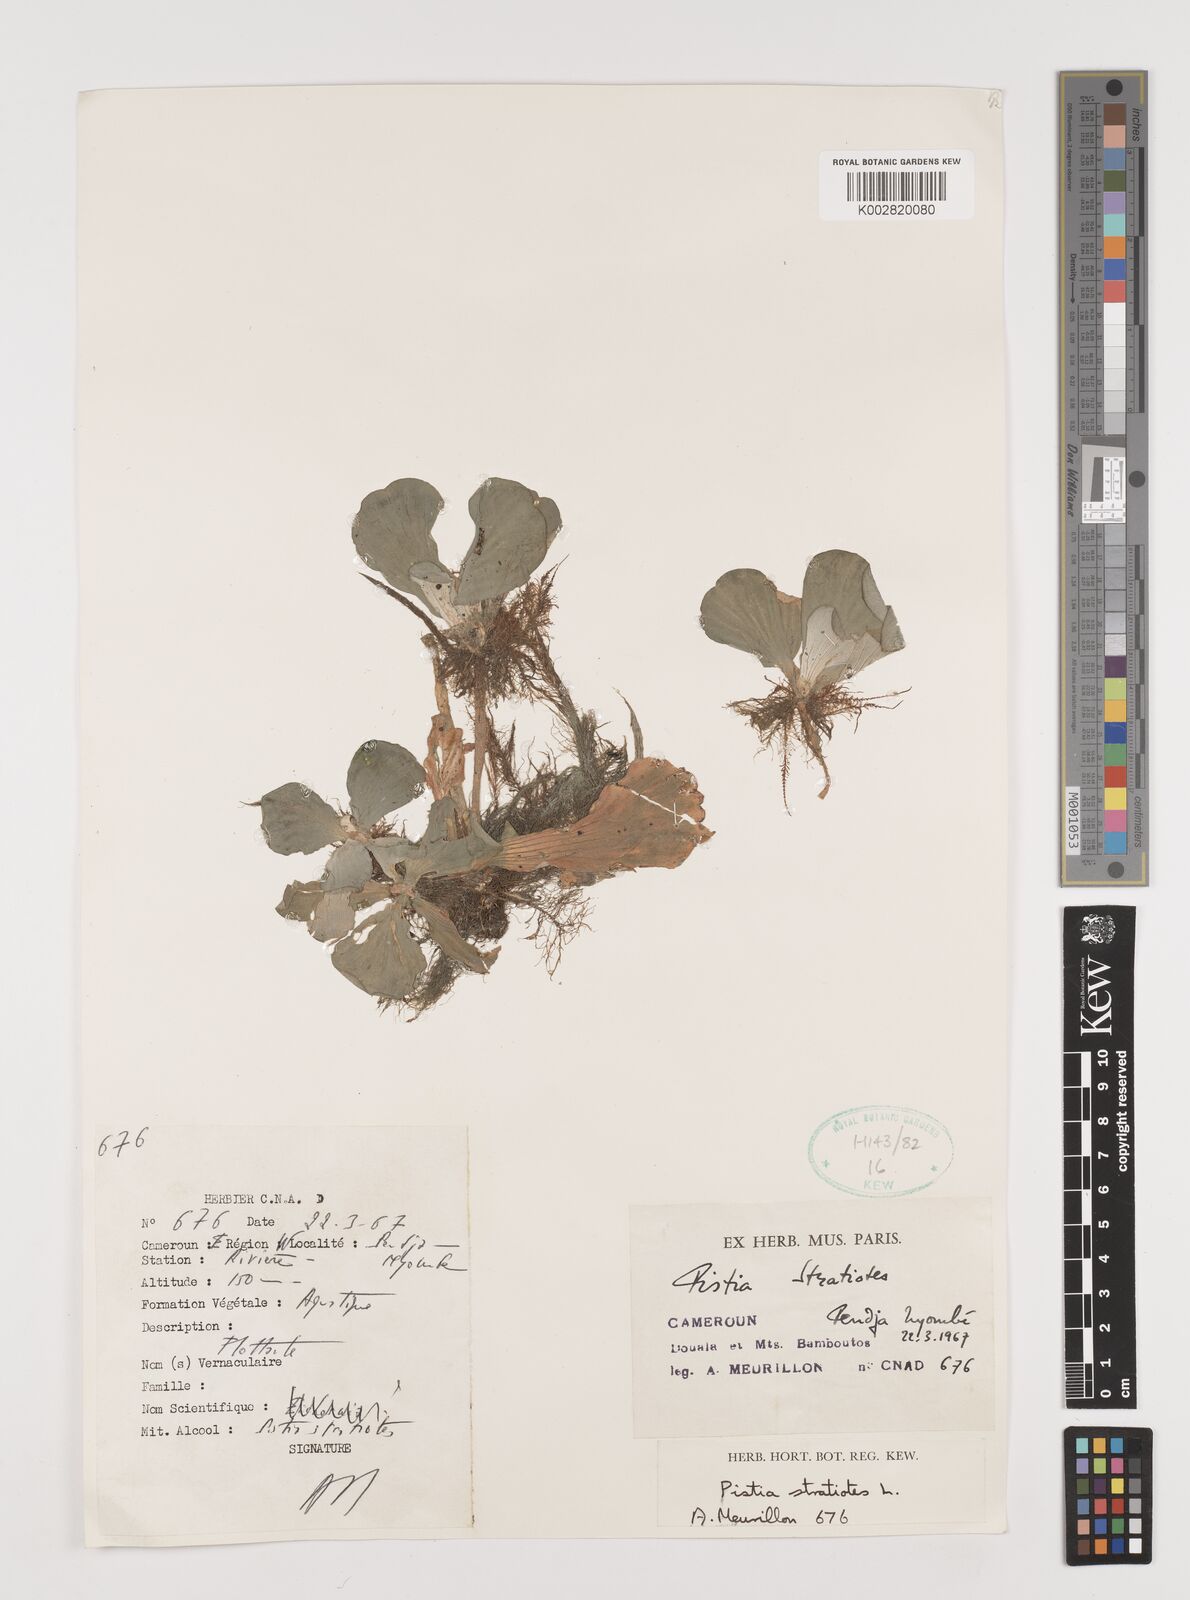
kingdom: Plantae
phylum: Tracheophyta
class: Liliopsida
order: Alismatales
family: Araceae
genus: Pistia
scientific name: Pistia stratiotes
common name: Water lettuce
